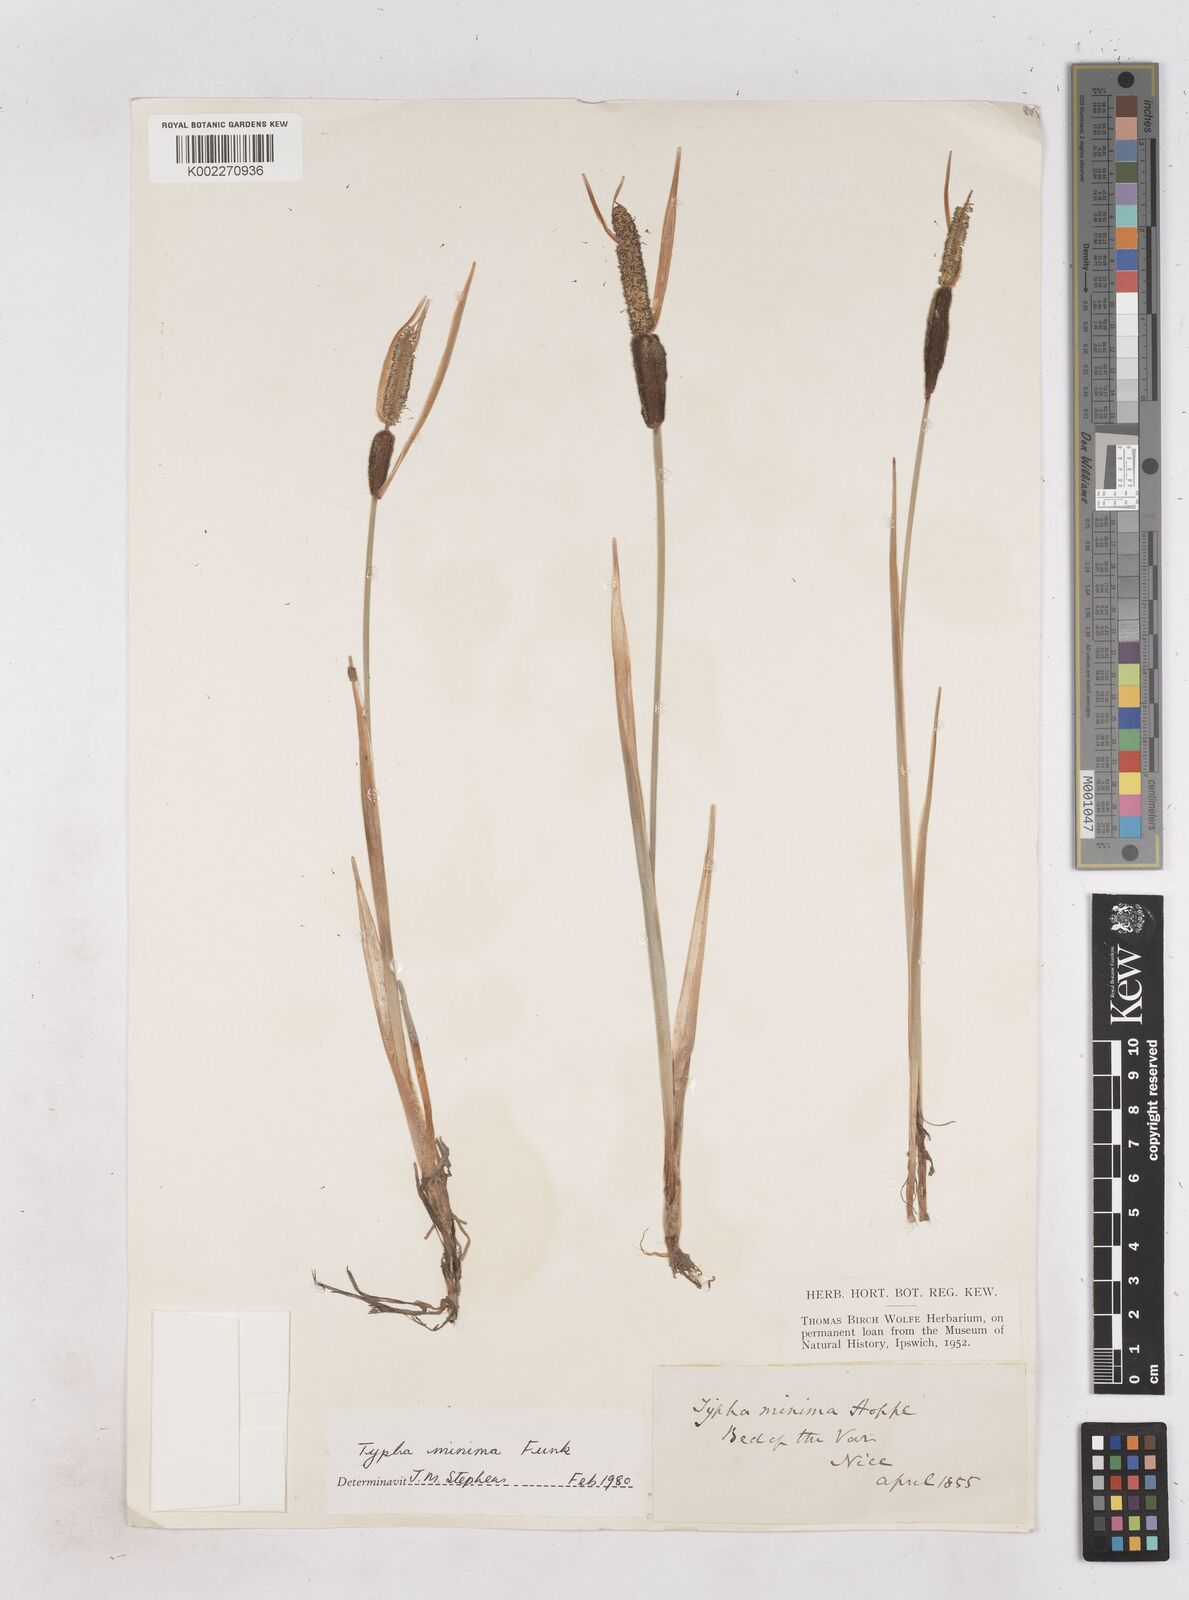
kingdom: Plantae
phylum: Tracheophyta
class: Liliopsida
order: Poales
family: Typhaceae
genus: Typha
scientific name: Typha
